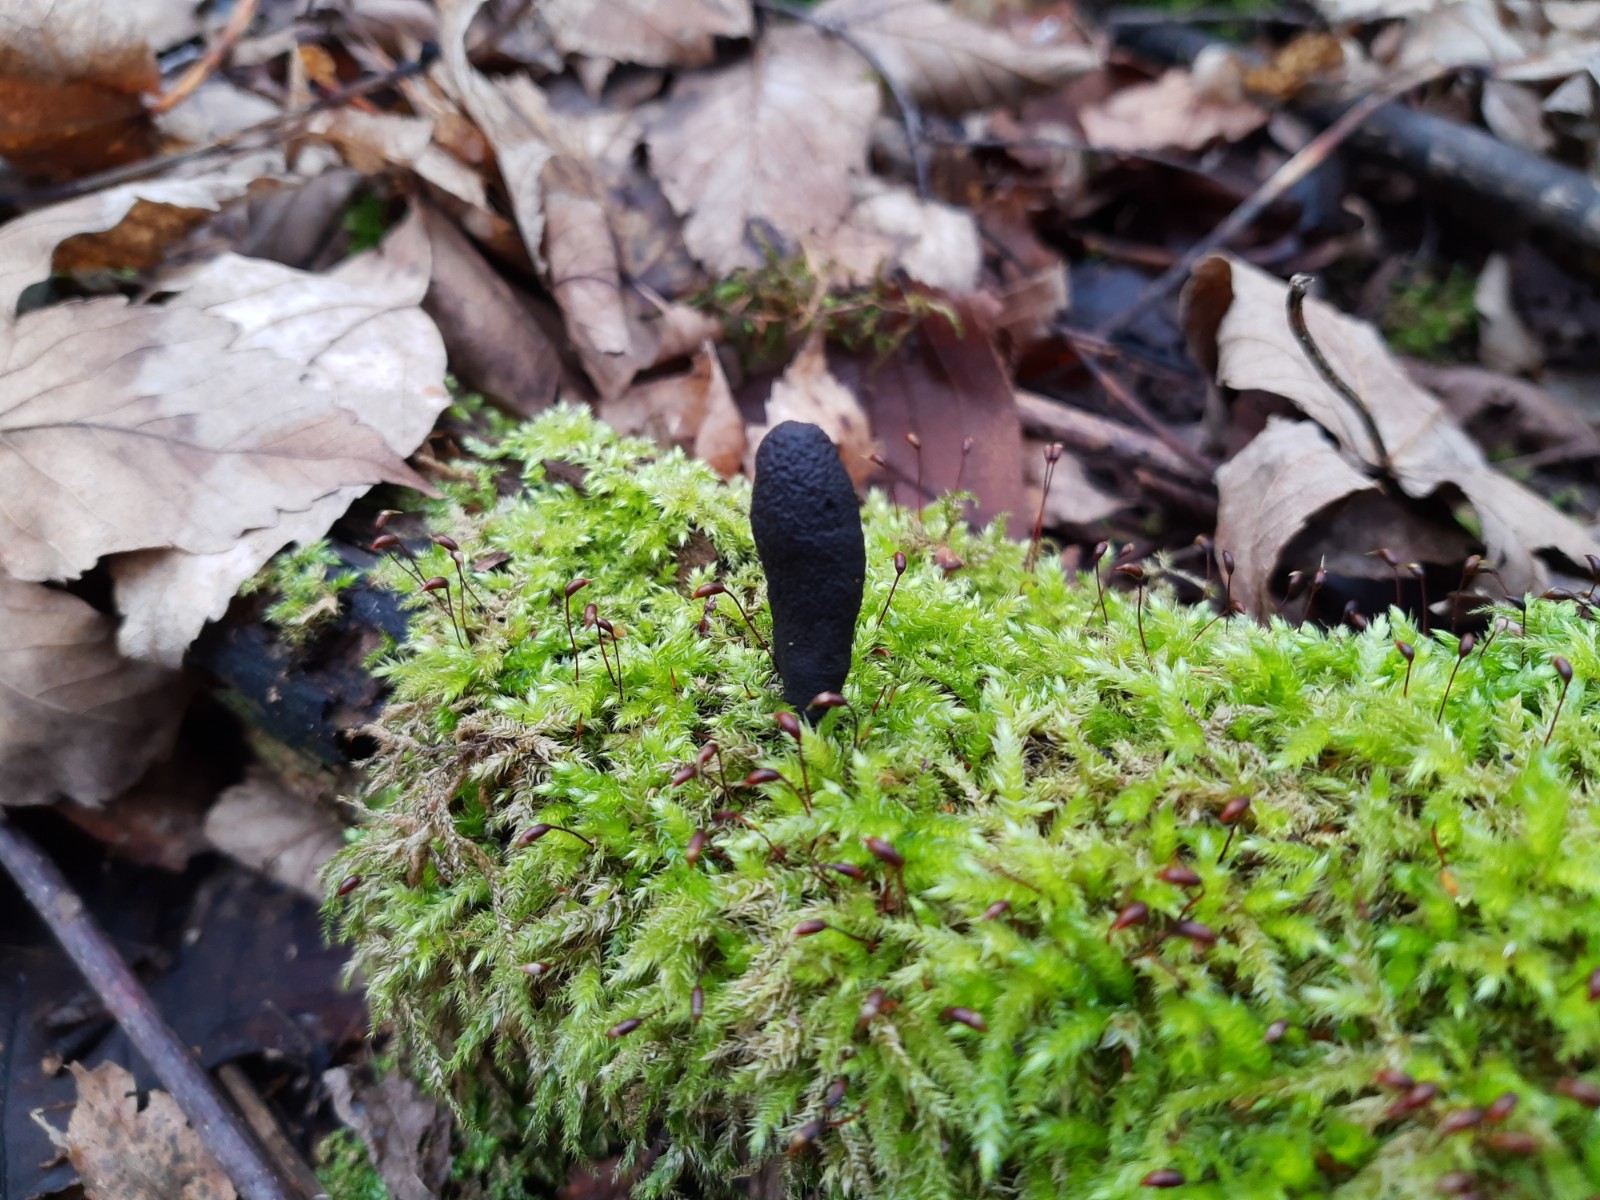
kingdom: Fungi
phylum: Ascomycota
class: Sordariomycetes
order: Xylariales
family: Xylariaceae
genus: Xylaria
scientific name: Xylaria polymorpha
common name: kølle-stødsvamp
